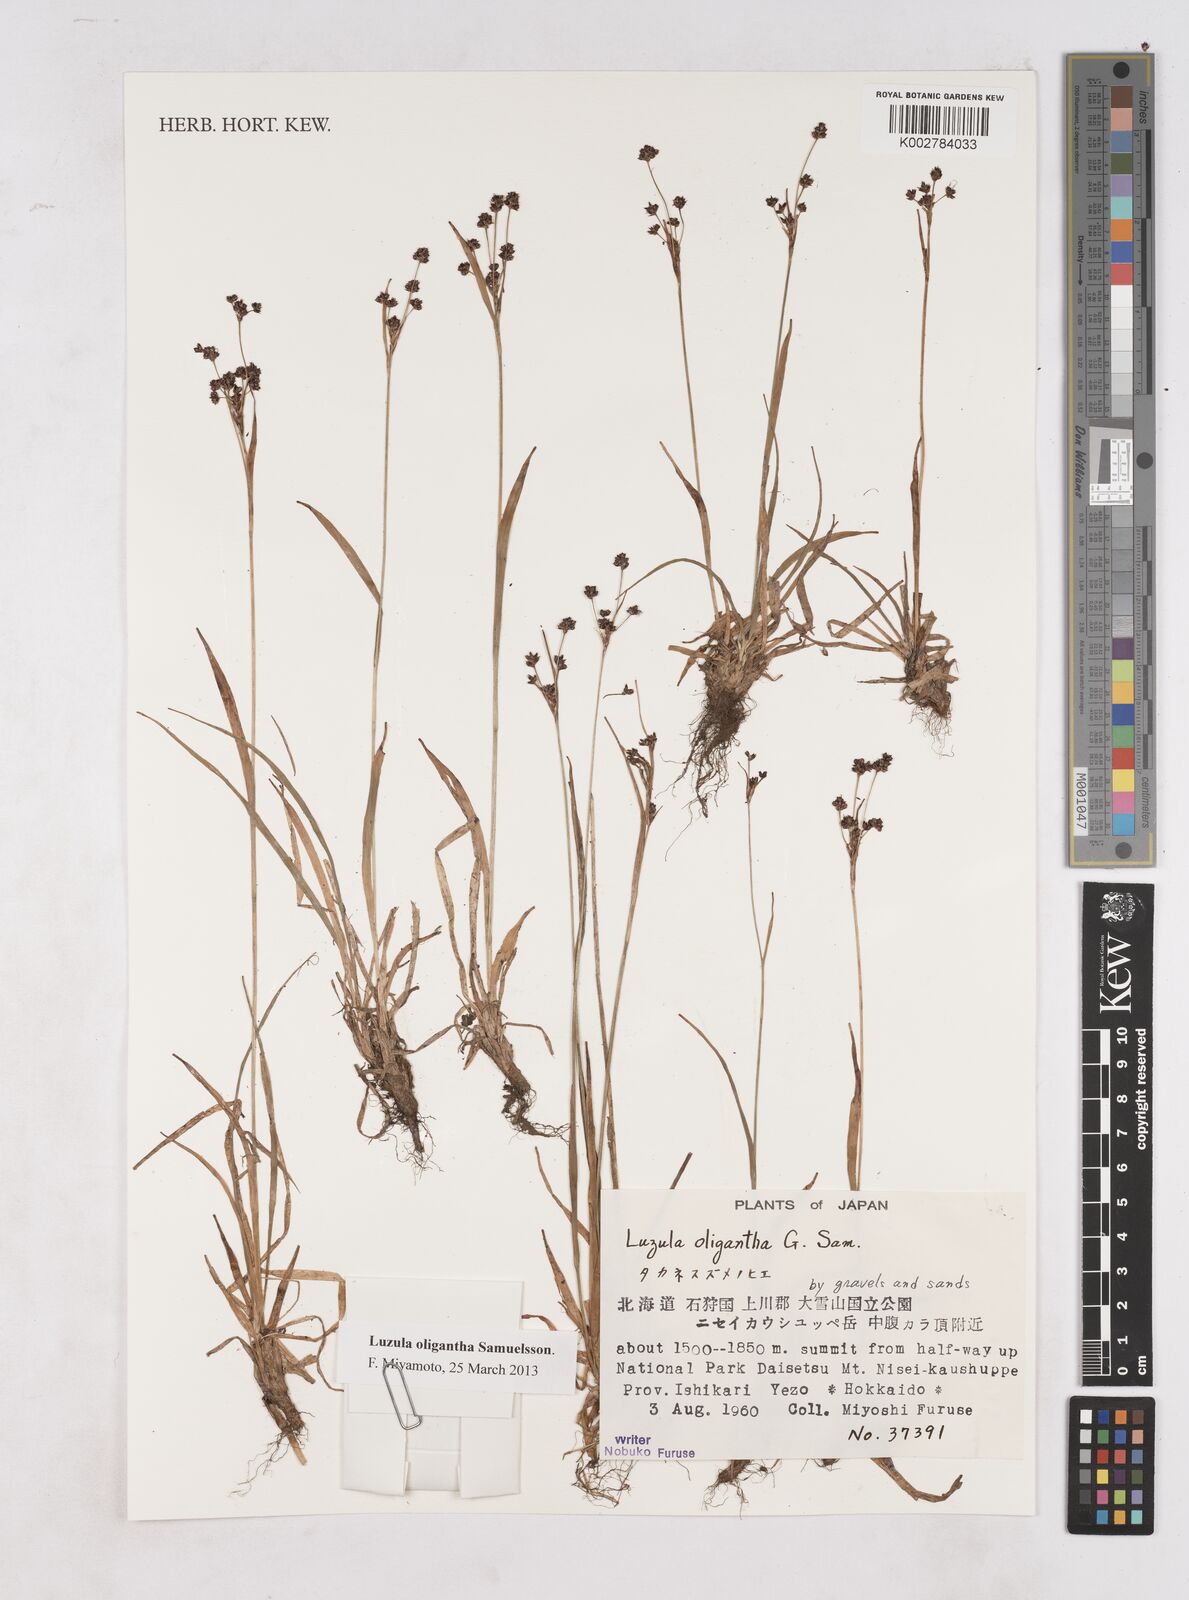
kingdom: Plantae
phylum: Tracheophyta
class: Liliopsida
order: Poales
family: Juncaceae
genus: Luzula
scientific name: Luzula oligantha
